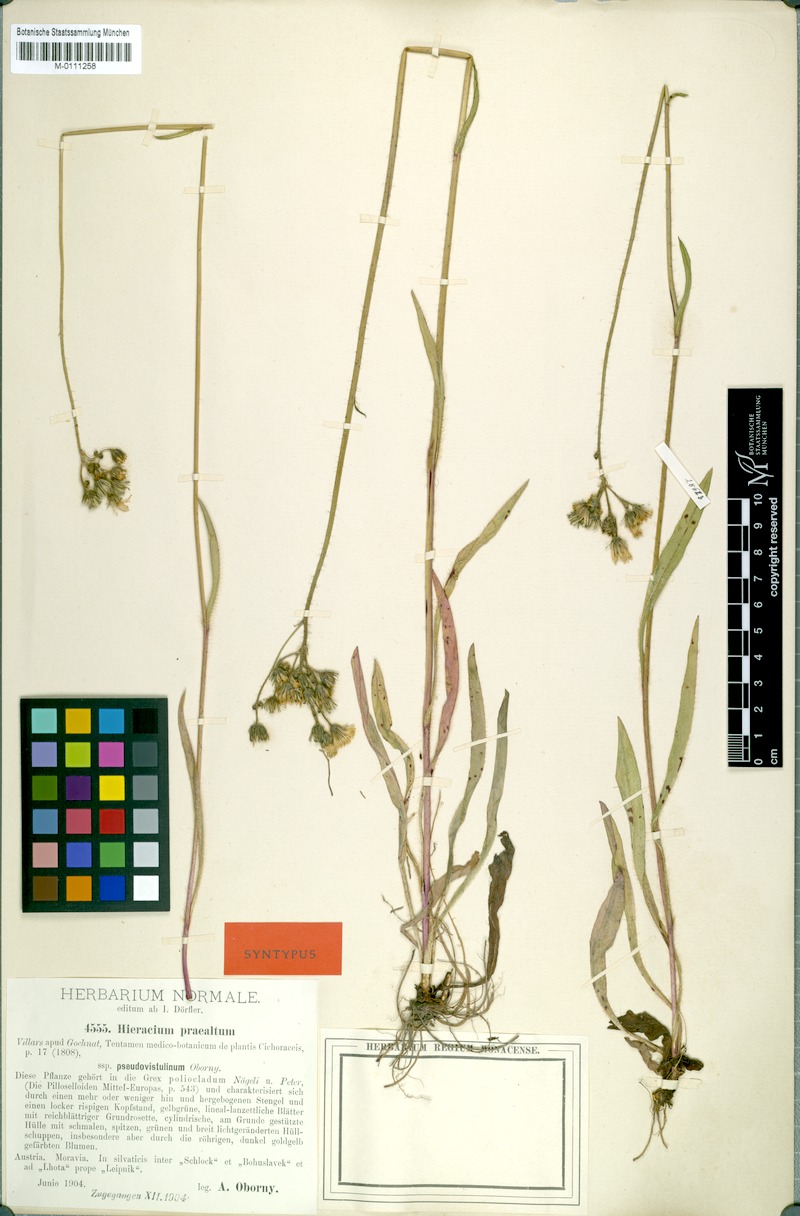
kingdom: Plantae
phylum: Tracheophyta
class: Magnoliopsida
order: Asterales
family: Asteraceae
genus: Hieracium
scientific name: Hieracium piloselloides
